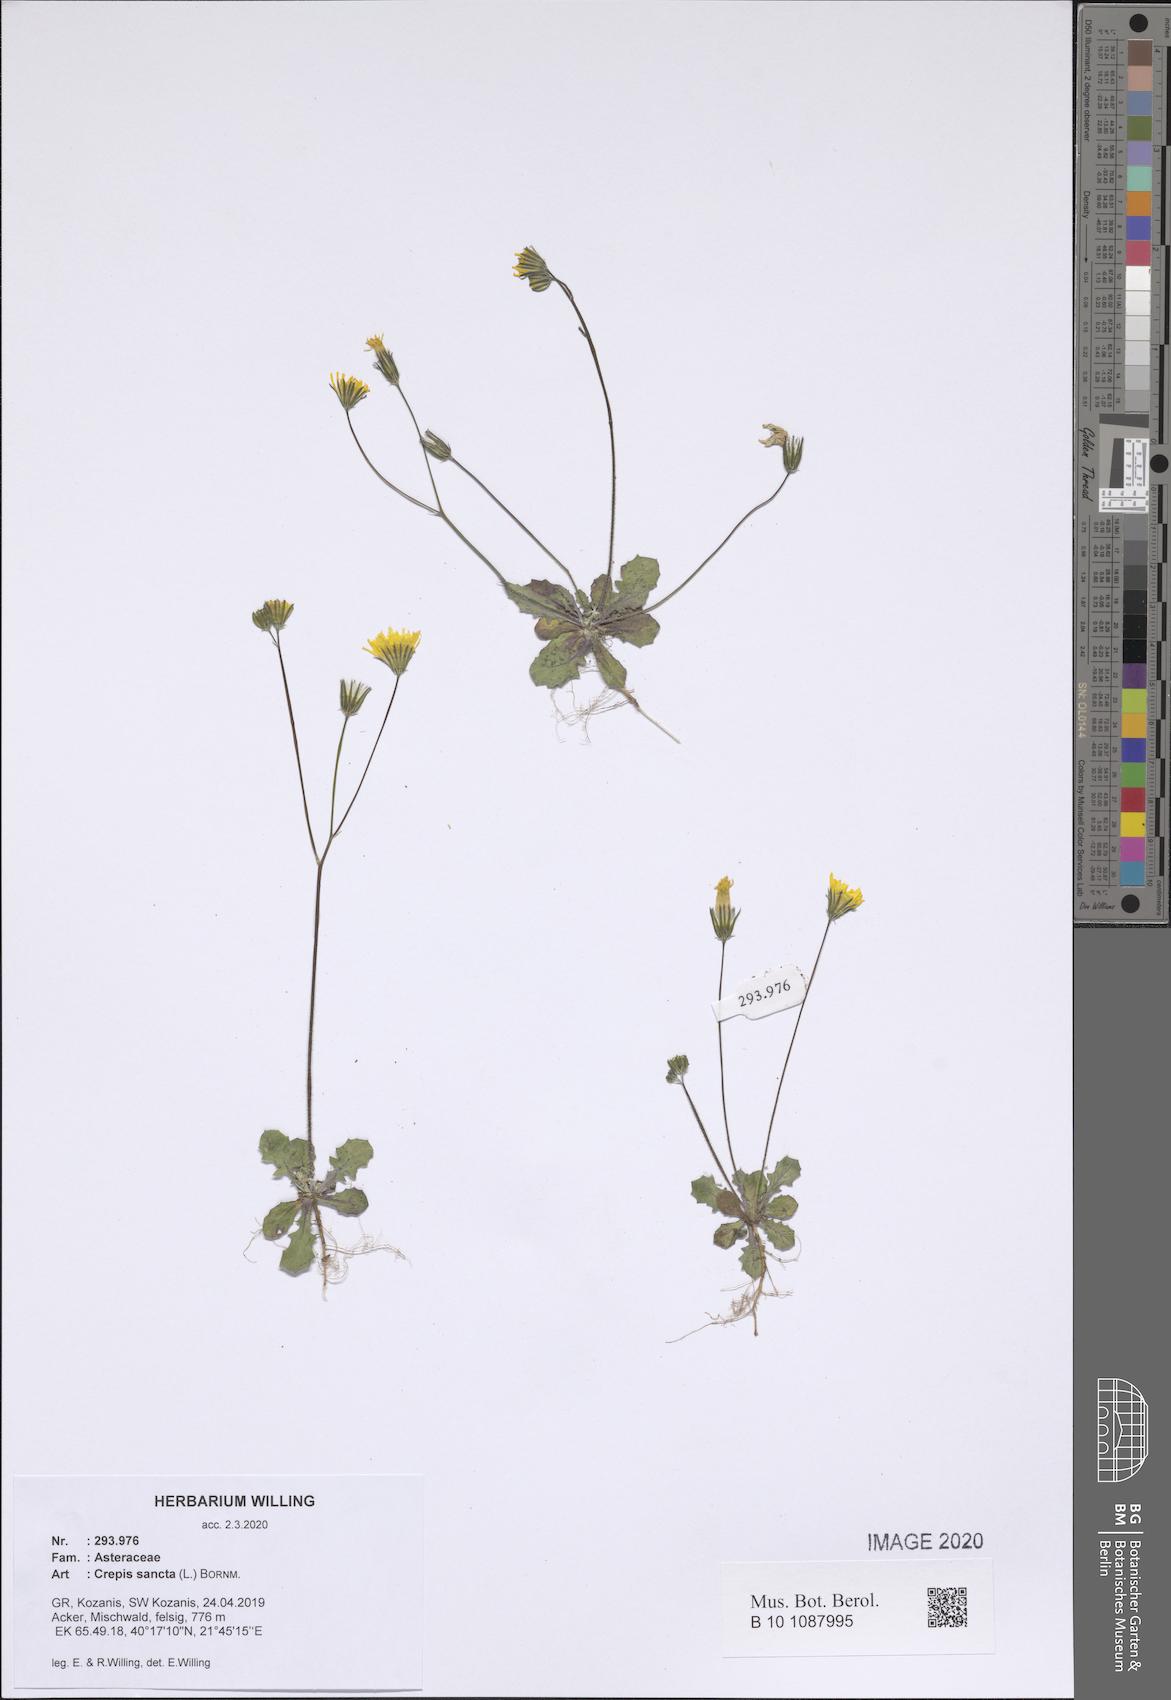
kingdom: Plantae
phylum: Tracheophyta
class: Magnoliopsida
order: Asterales
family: Asteraceae
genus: Crepis
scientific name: Crepis sancta
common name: Hawk's-beard
